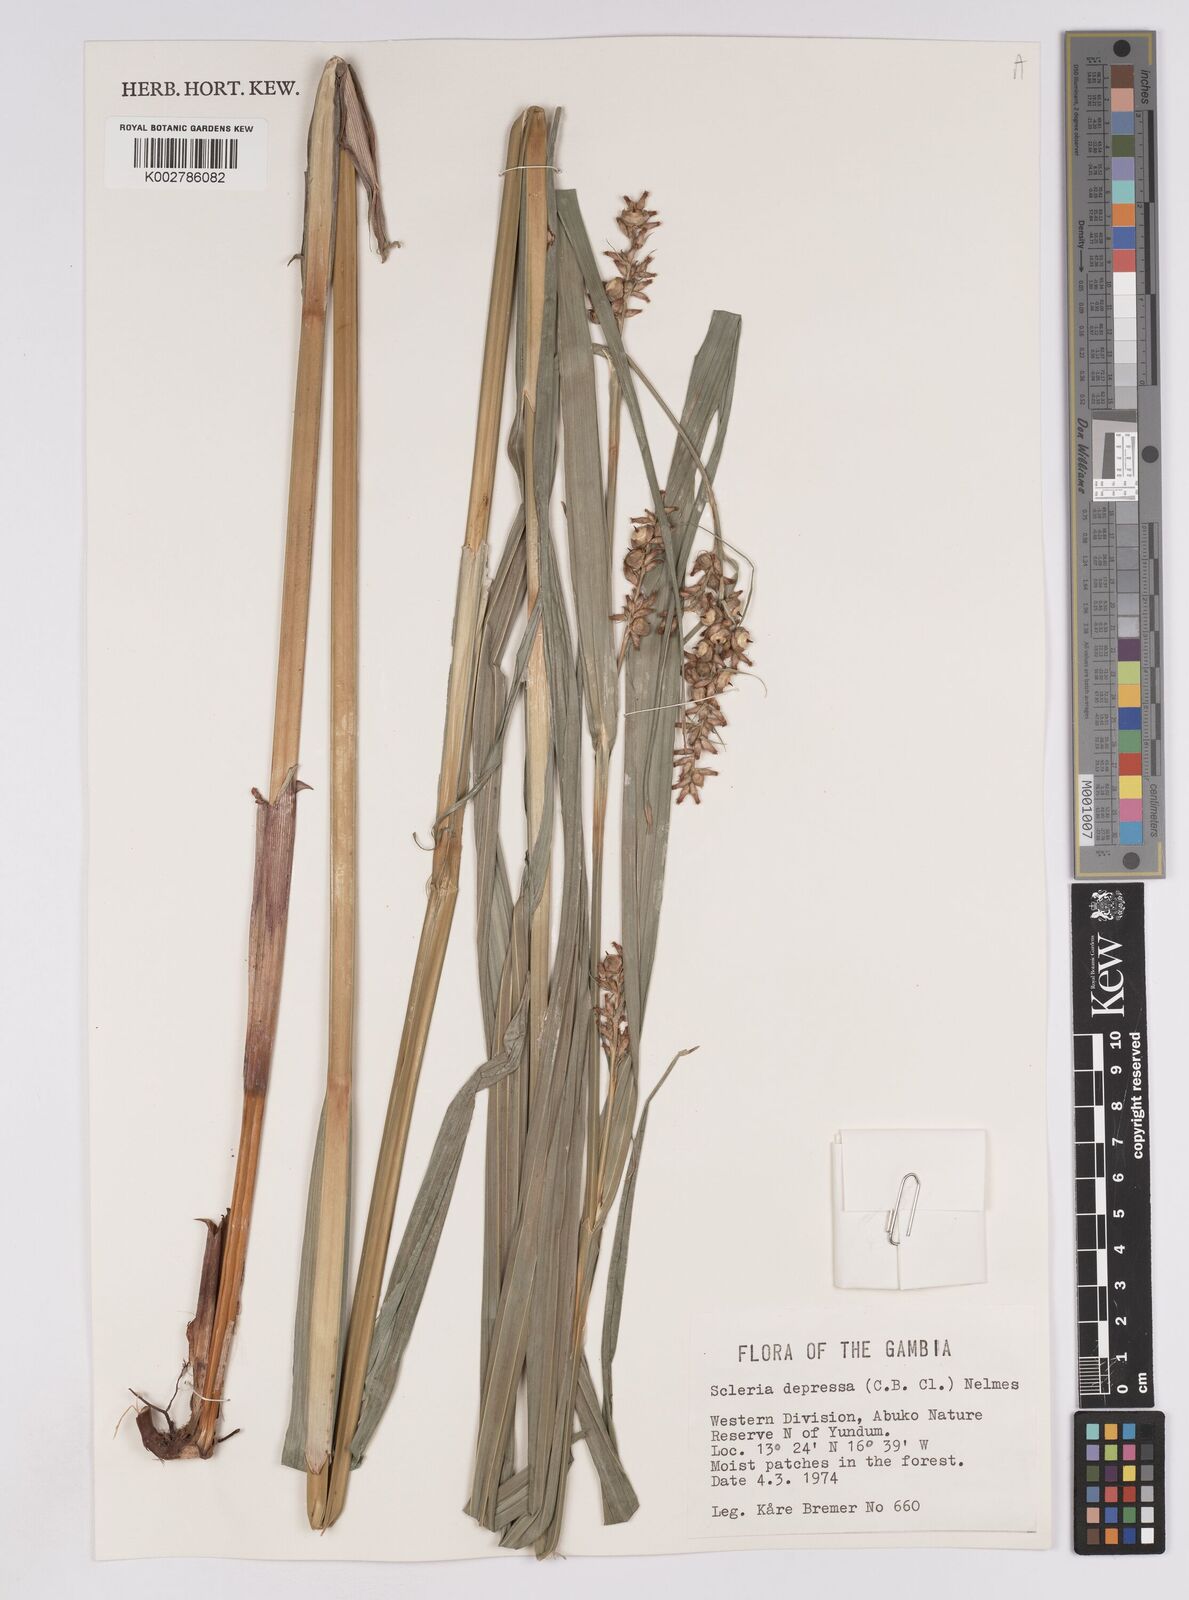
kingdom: Plantae
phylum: Tracheophyta
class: Liliopsida
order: Poales
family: Cyperaceae
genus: Scleria
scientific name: Scleria depressa
